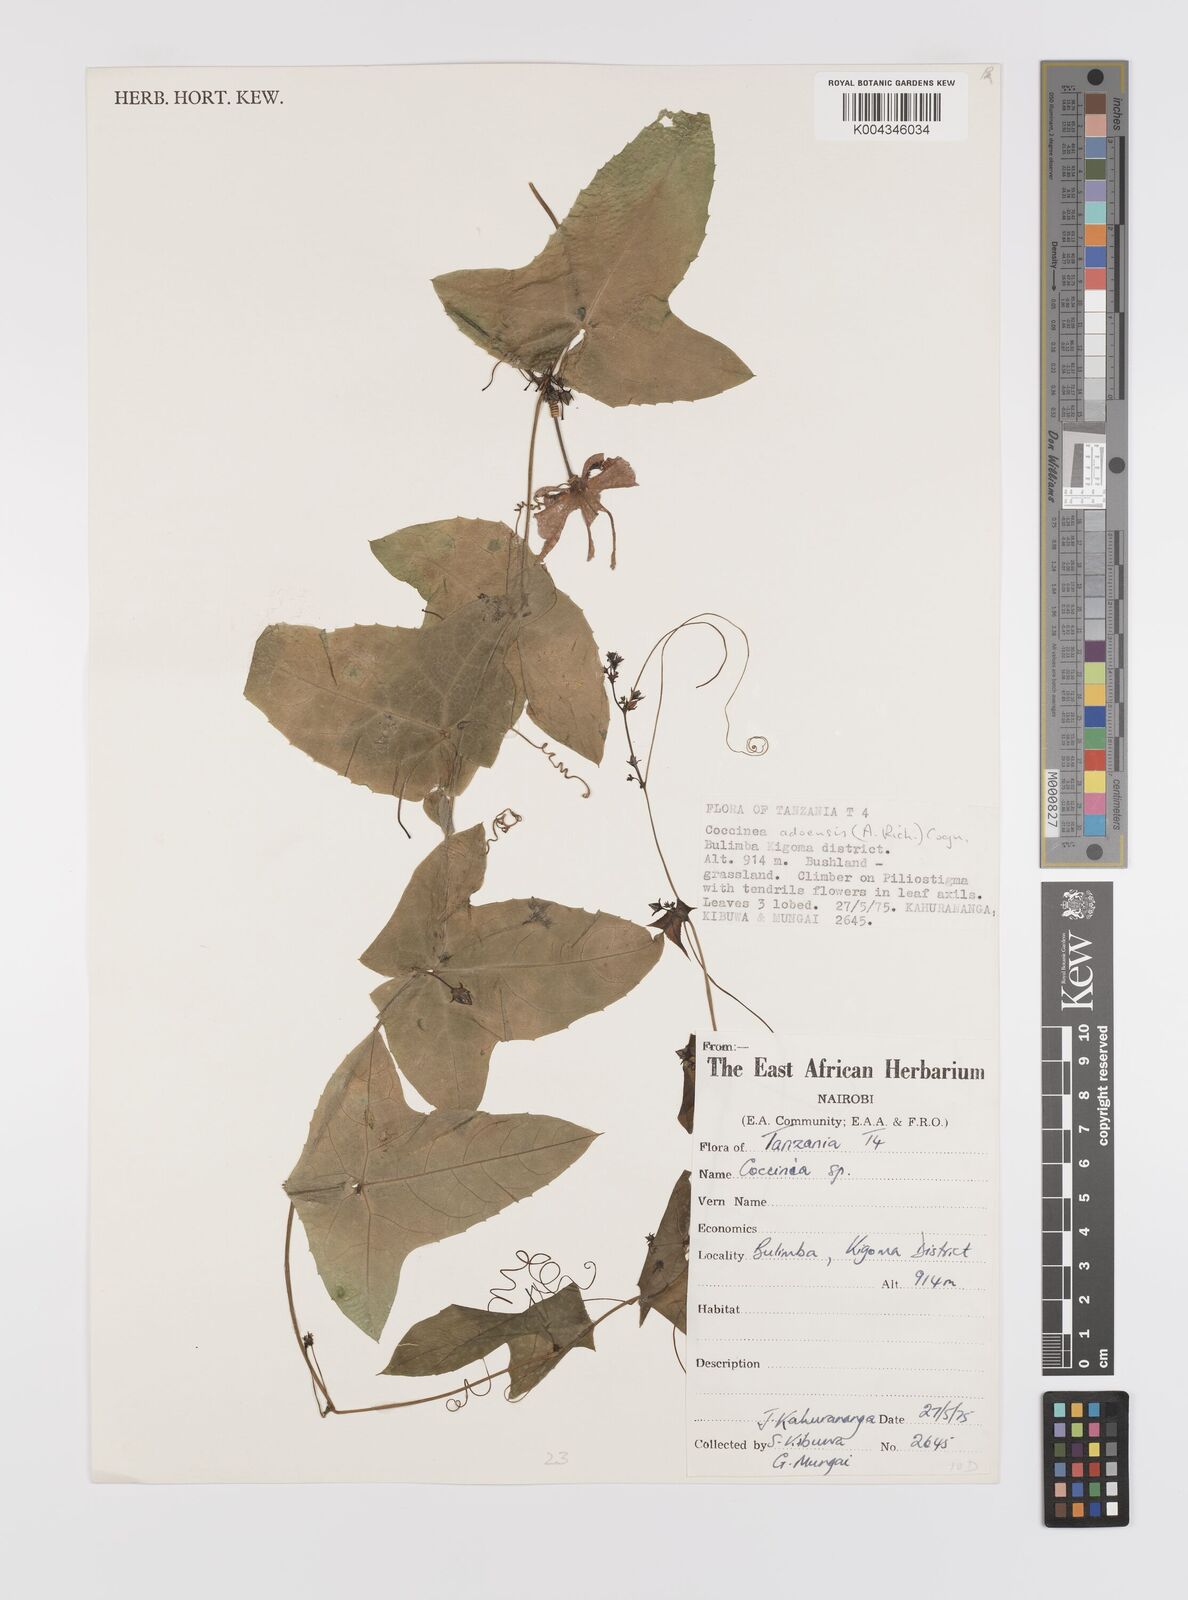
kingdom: Plantae
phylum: Tracheophyta
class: Magnoliopsida
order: Cucurbitales
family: Cucurbitaceae
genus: Coccinia
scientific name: Coccinia adoensis
